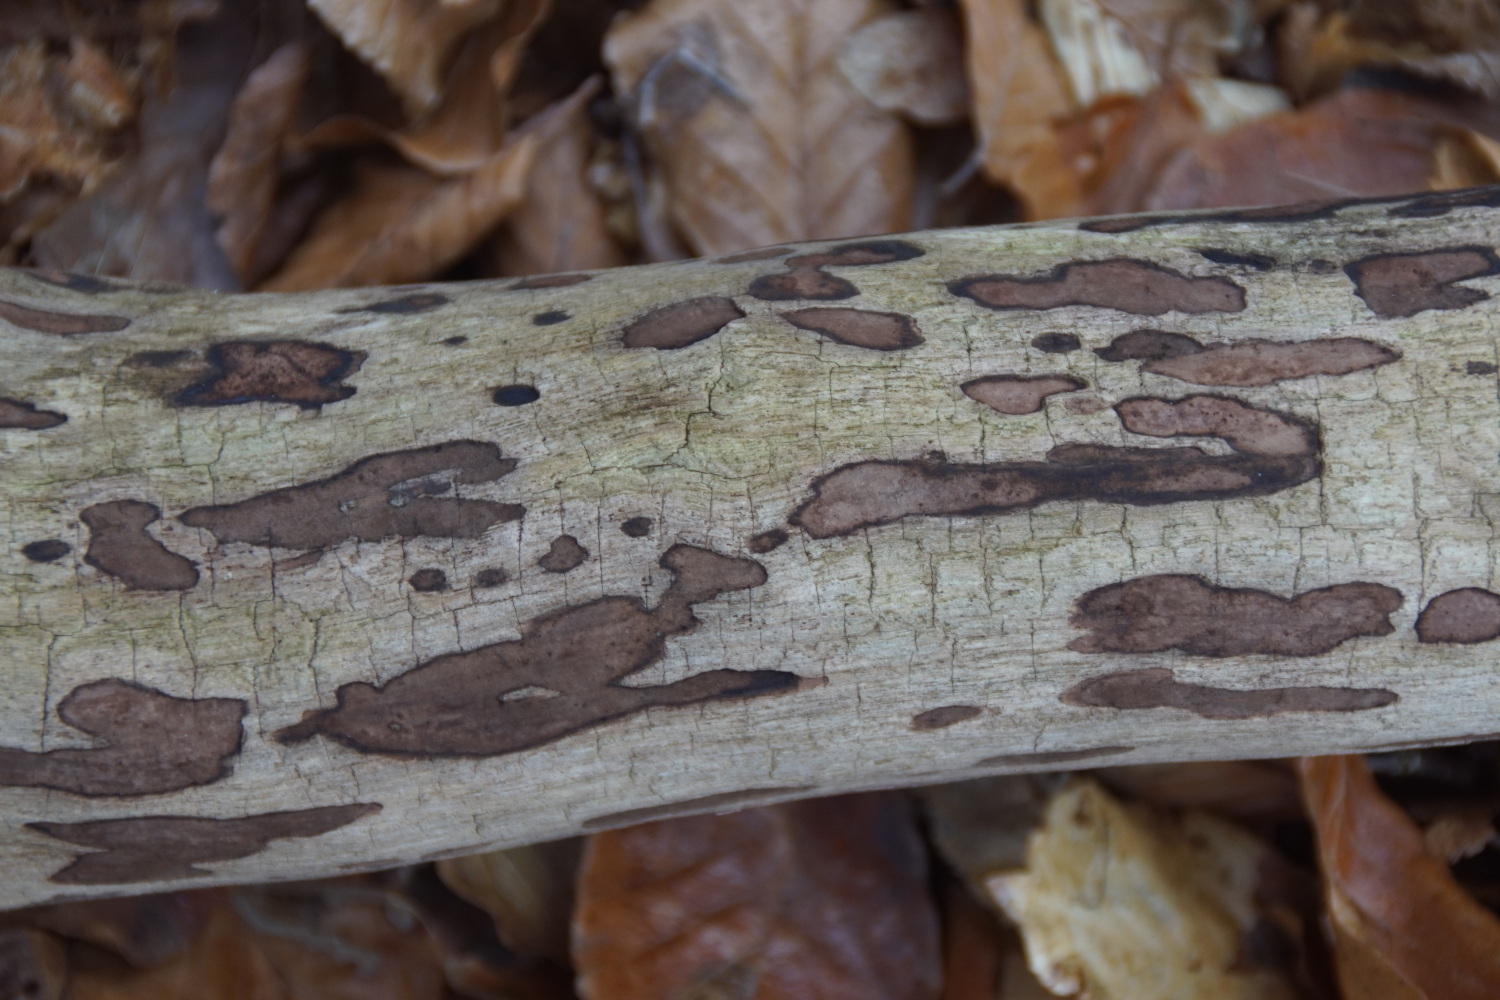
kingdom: Fungi
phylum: Ascomycota
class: Sordariomycetes
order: Xylariales
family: Hypoxylaceae
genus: Hypoxylon
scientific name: Hypoxylon petriniae
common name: nedsænket kulbær
